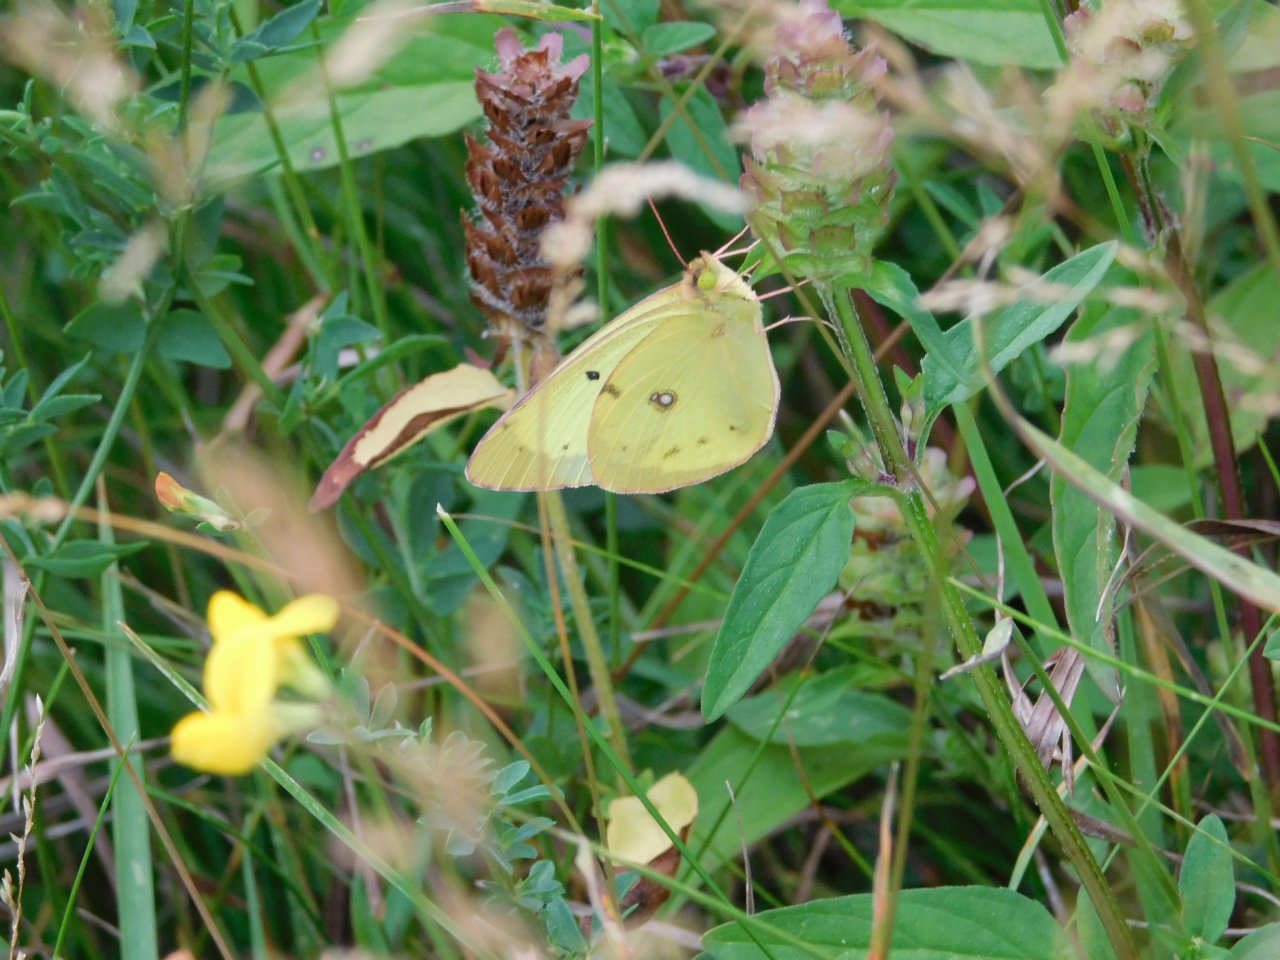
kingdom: Animalia
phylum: Arthropoda
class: Insecta
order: Lepidoptera
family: Pieridae
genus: Colias
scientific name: Colias philodice
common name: Clouded Sulphur
